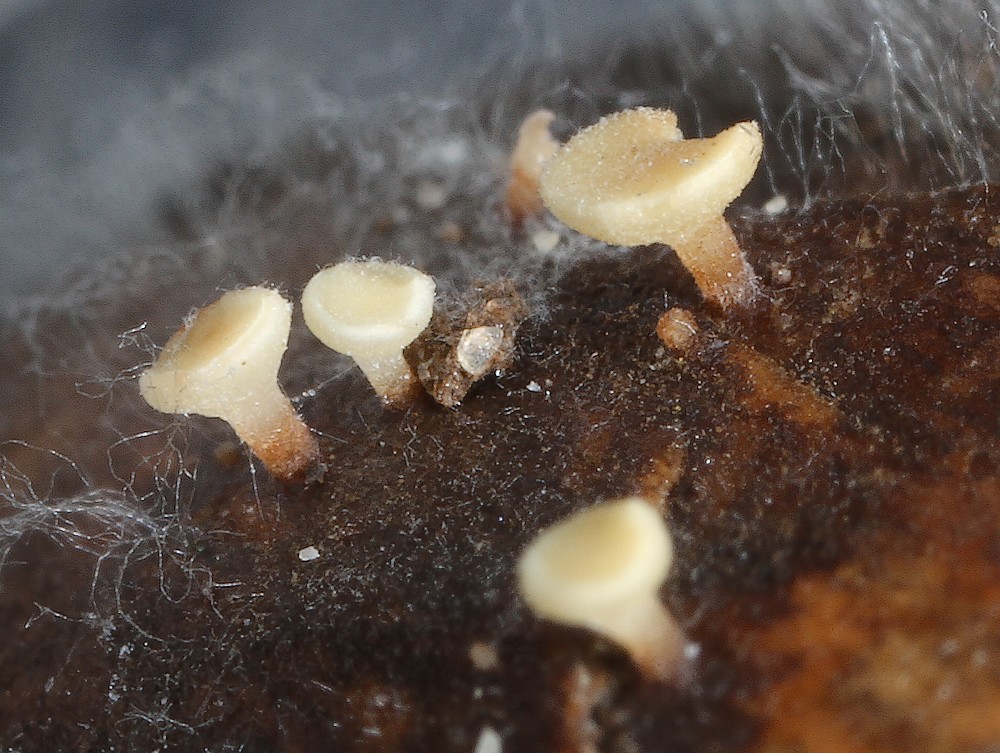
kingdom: Fungi
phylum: Ascomycota
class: Leotiomycetes
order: Helotiales
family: Helotiaceae
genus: Hymenoscyphus
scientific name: Hymenoscyphus fructigenus
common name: frugt-stilkskive
